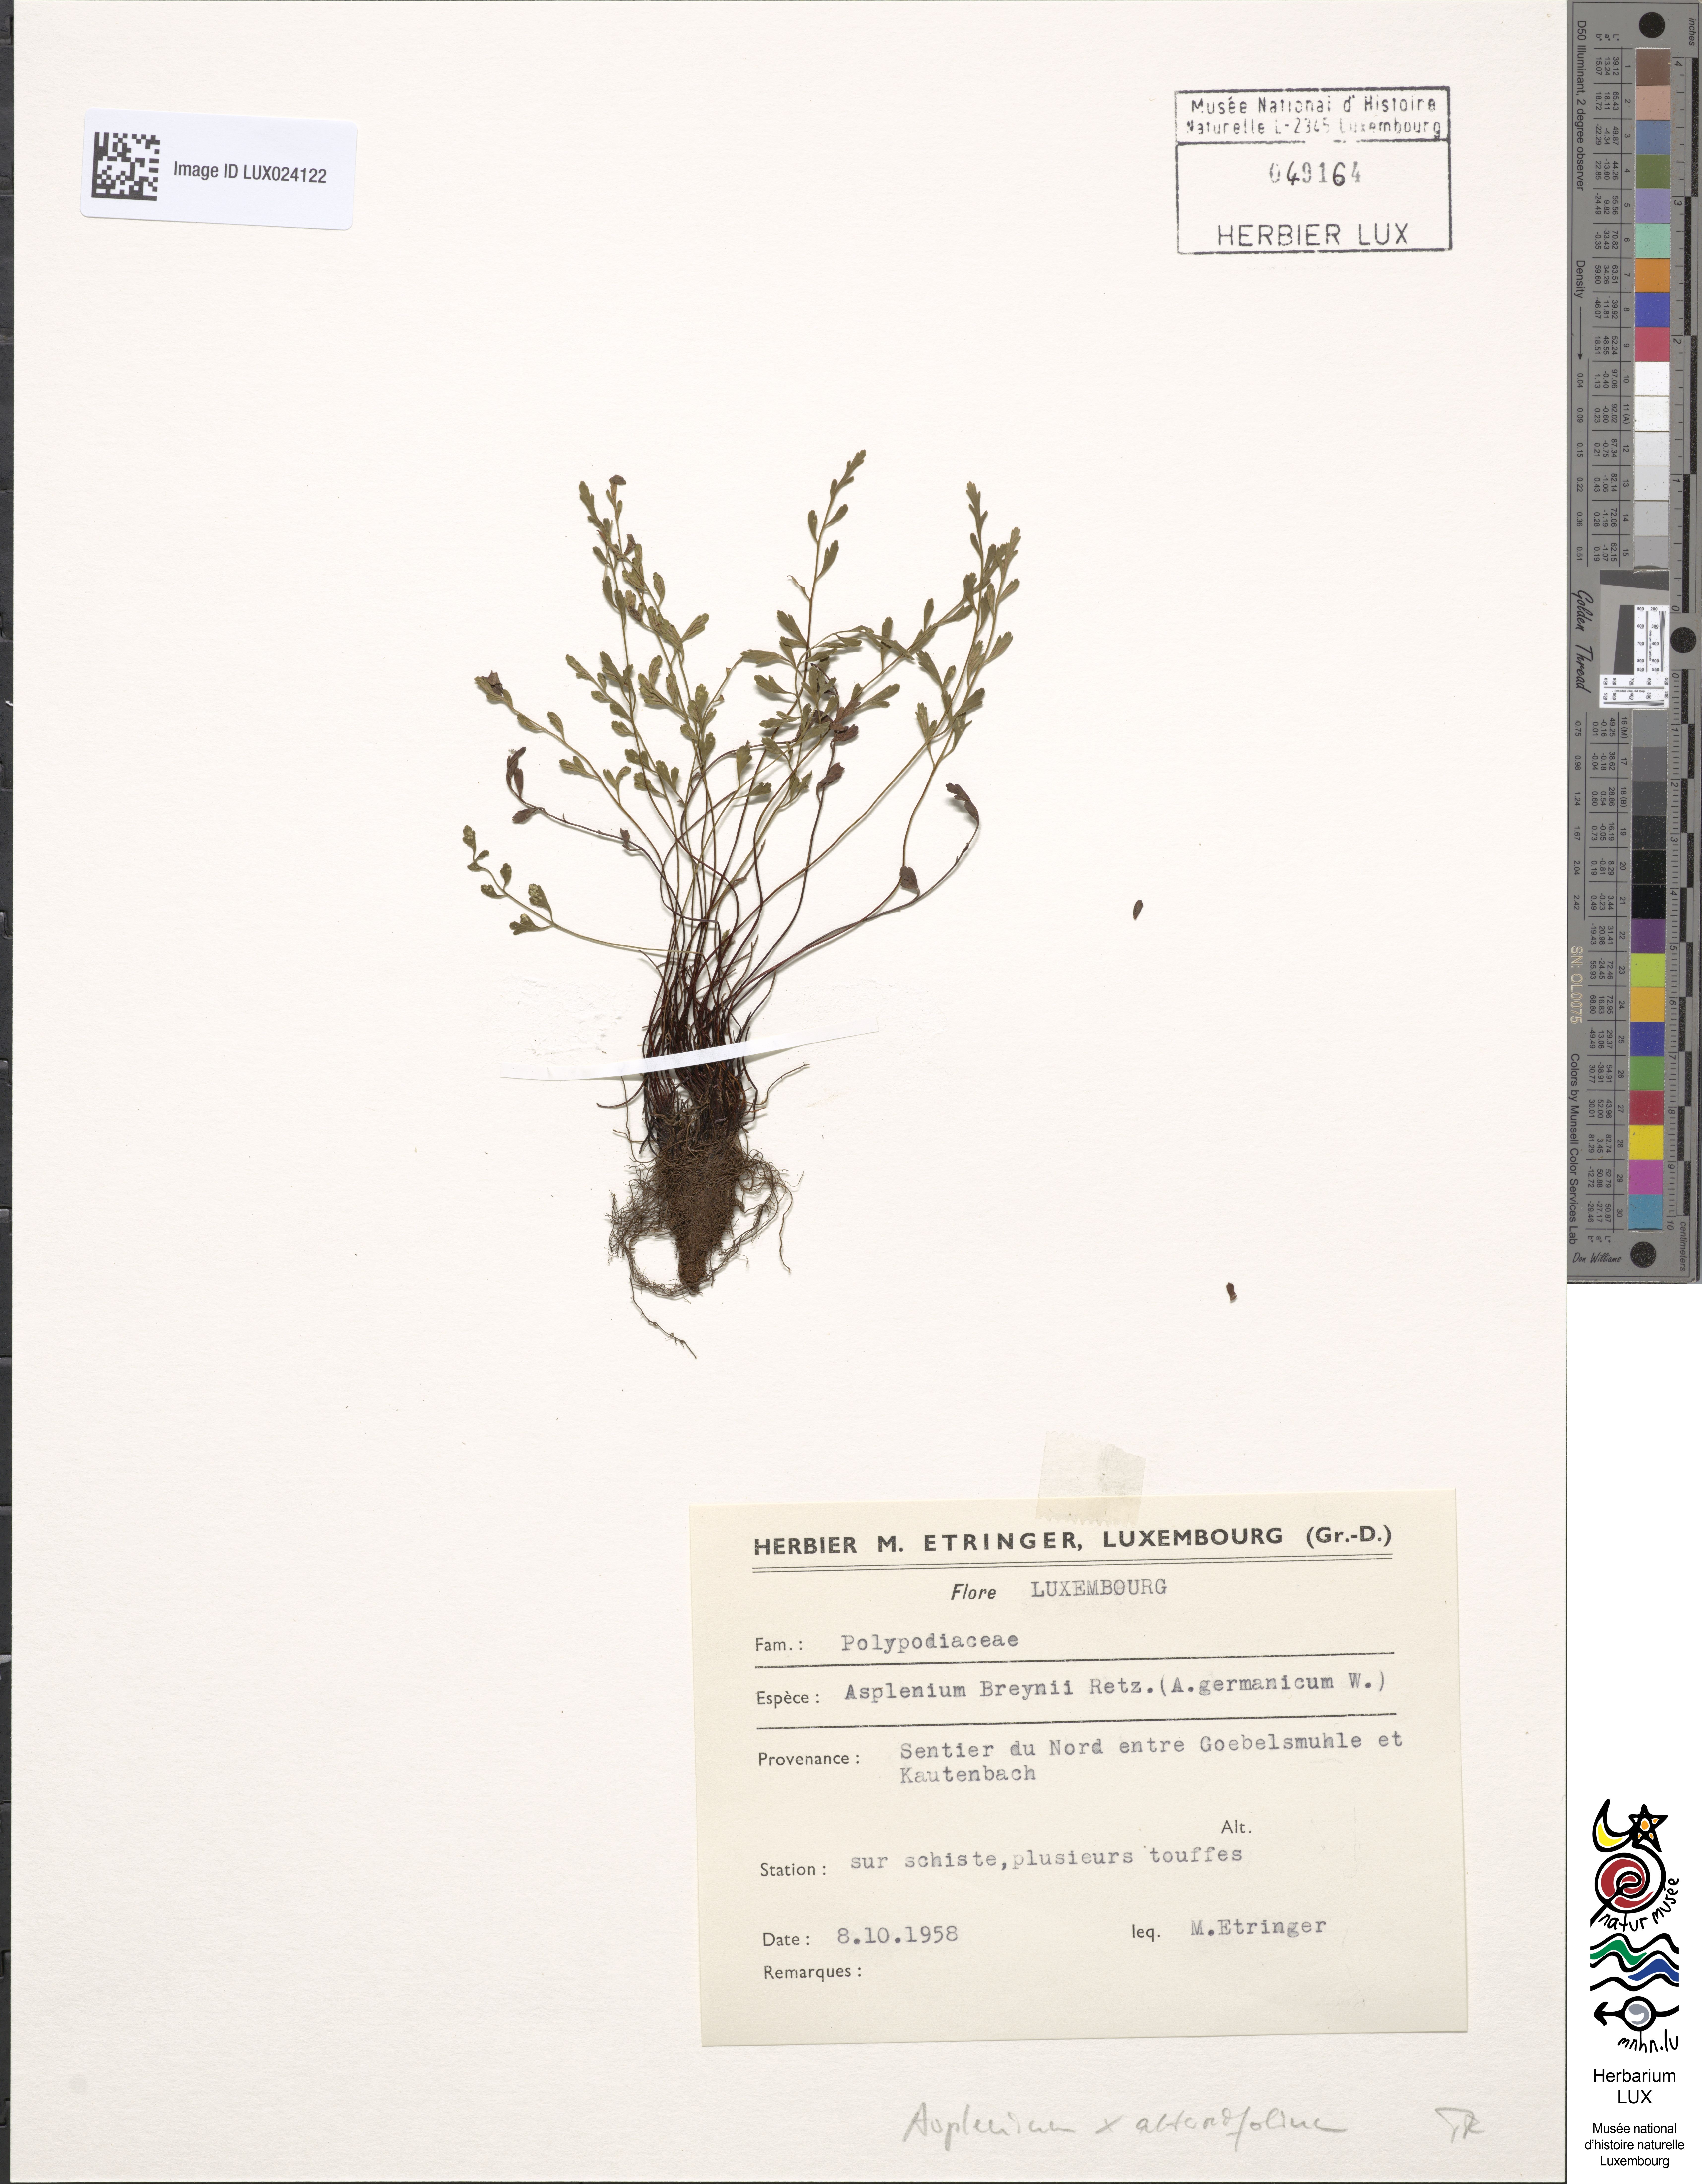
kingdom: Plantae
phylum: Tracheophyta
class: Polypodiopsida
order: Polypodiales
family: Aspleniaceae
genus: Asplenium
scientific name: Asplenium alternifolium
